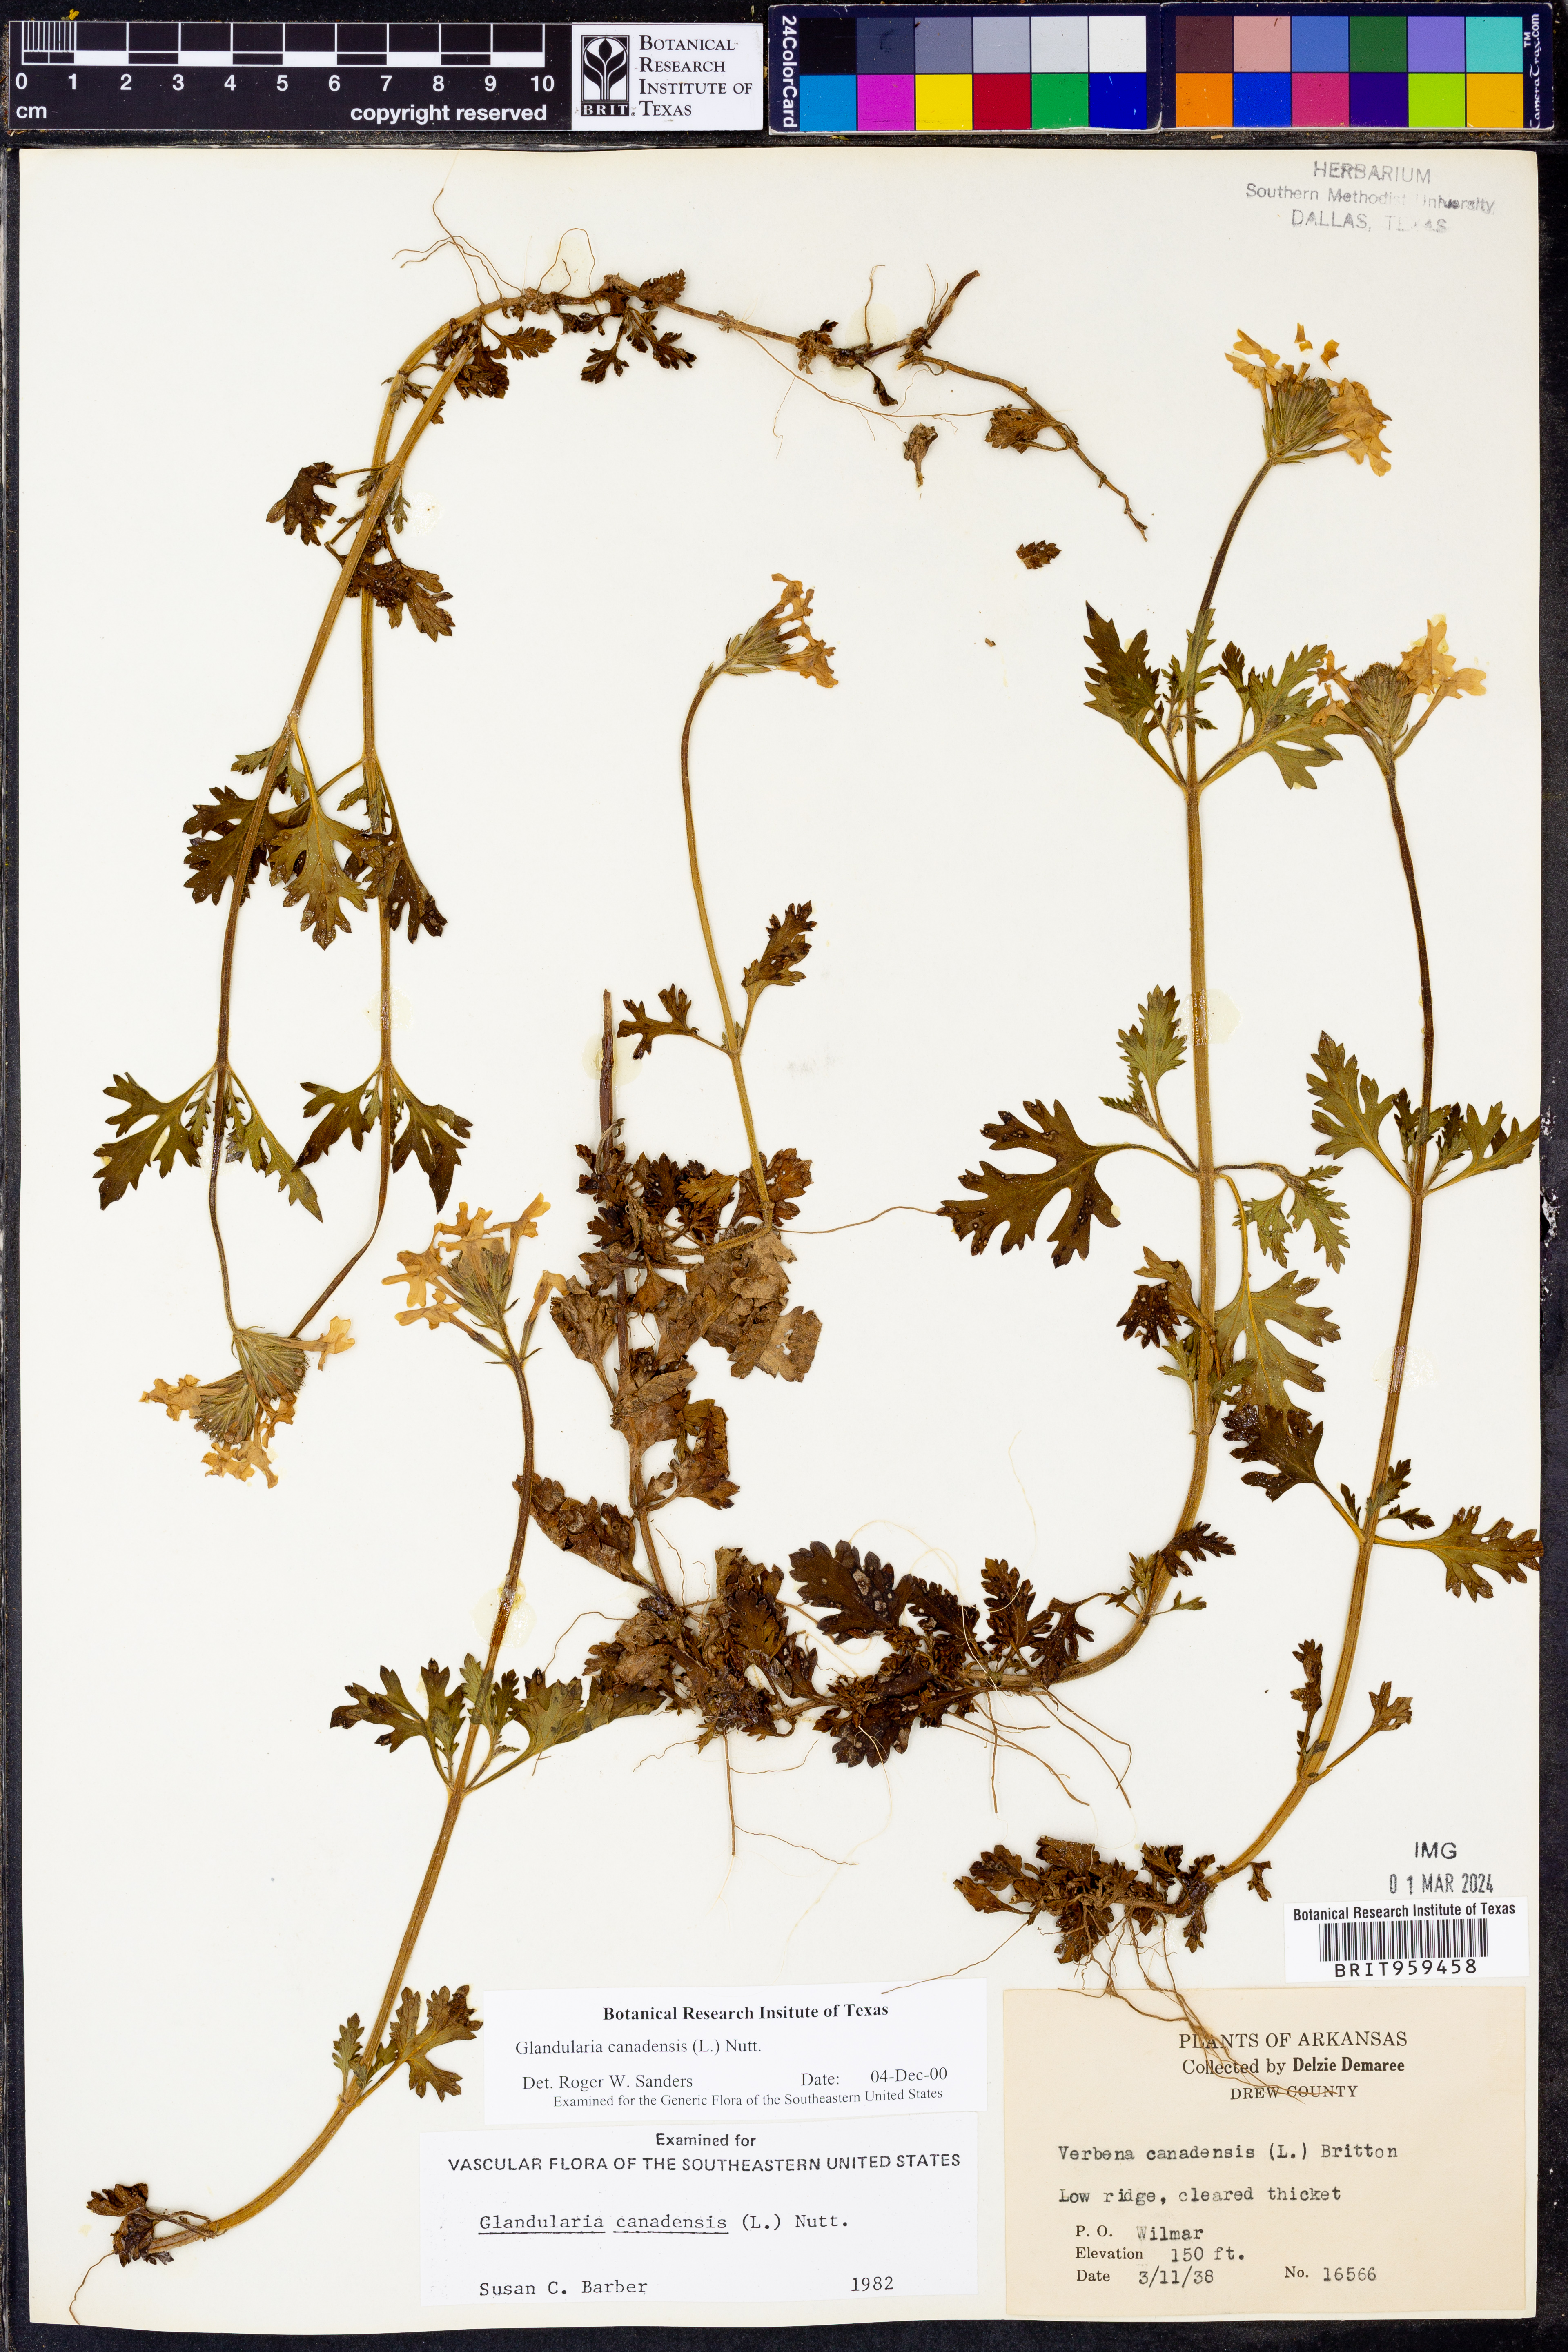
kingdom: Plantae
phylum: Tracheophyta
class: Magnoliopsida
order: Lamiales
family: Verbenaceae
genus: Verbena
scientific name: Verbena canadensis
